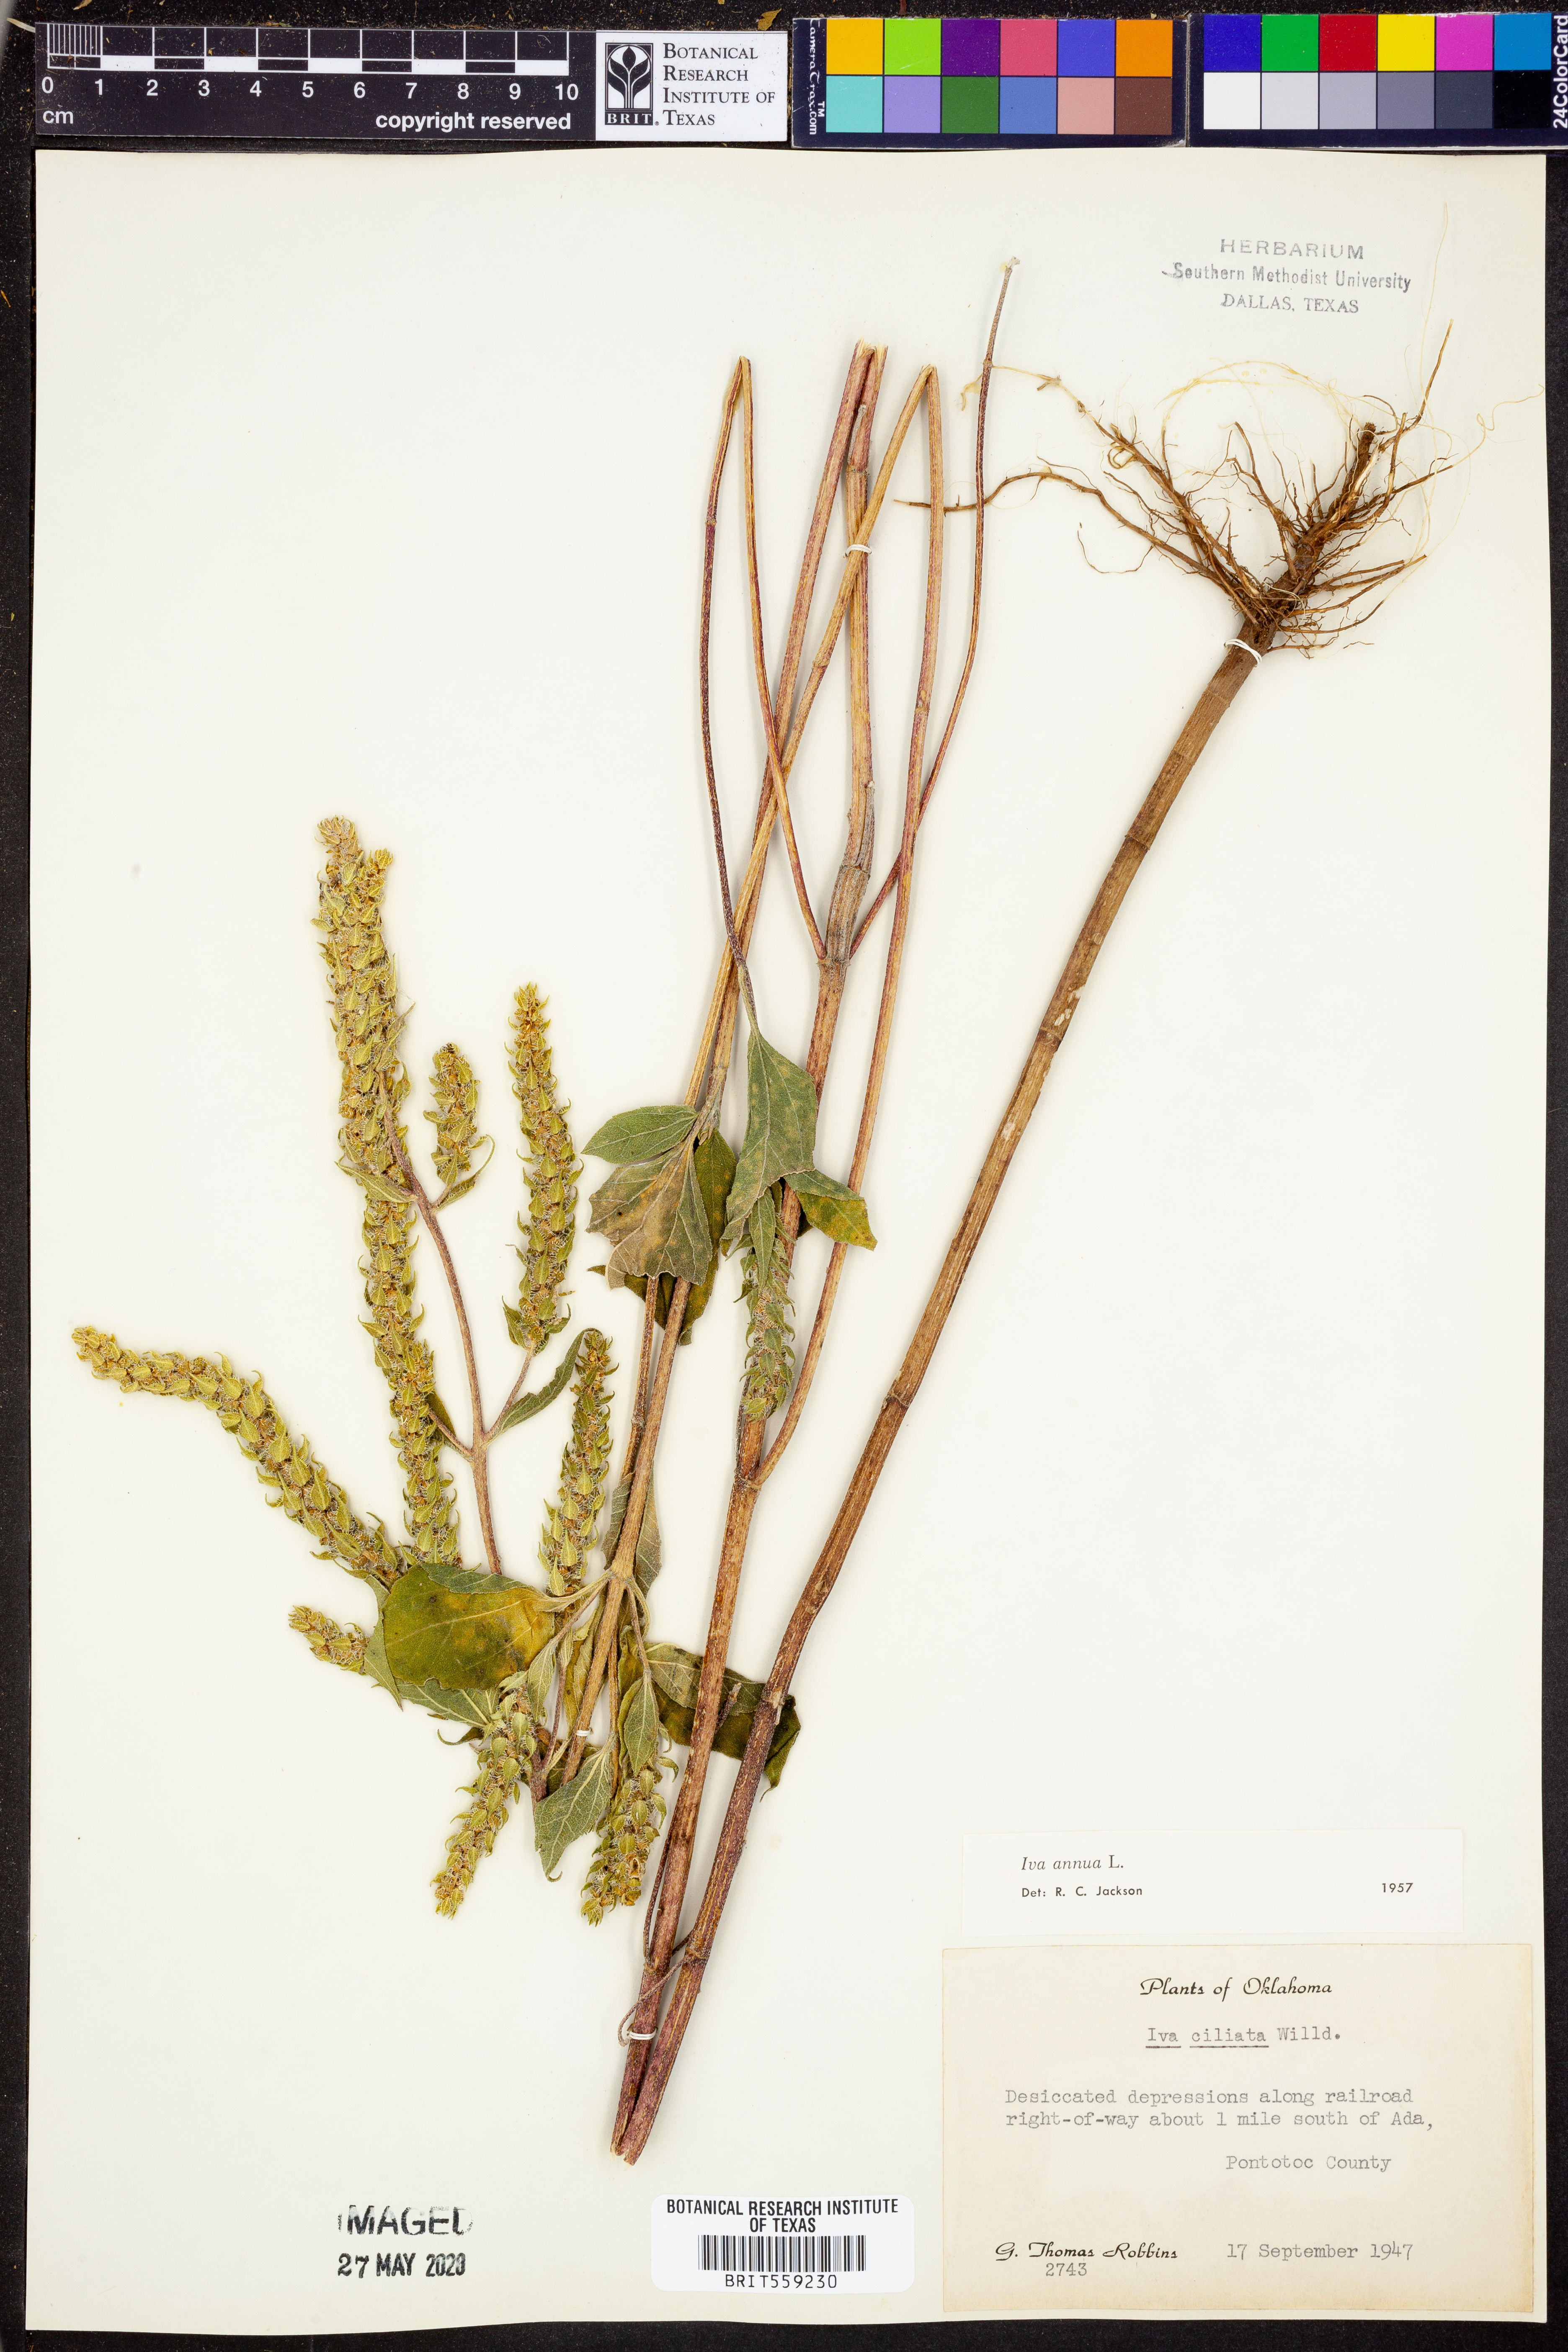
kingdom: Plantae
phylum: Tracheophyta
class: Magnoliopsida
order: Asterales
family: Asteraceae
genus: Iva
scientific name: Iva annua
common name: Marsh-elder
